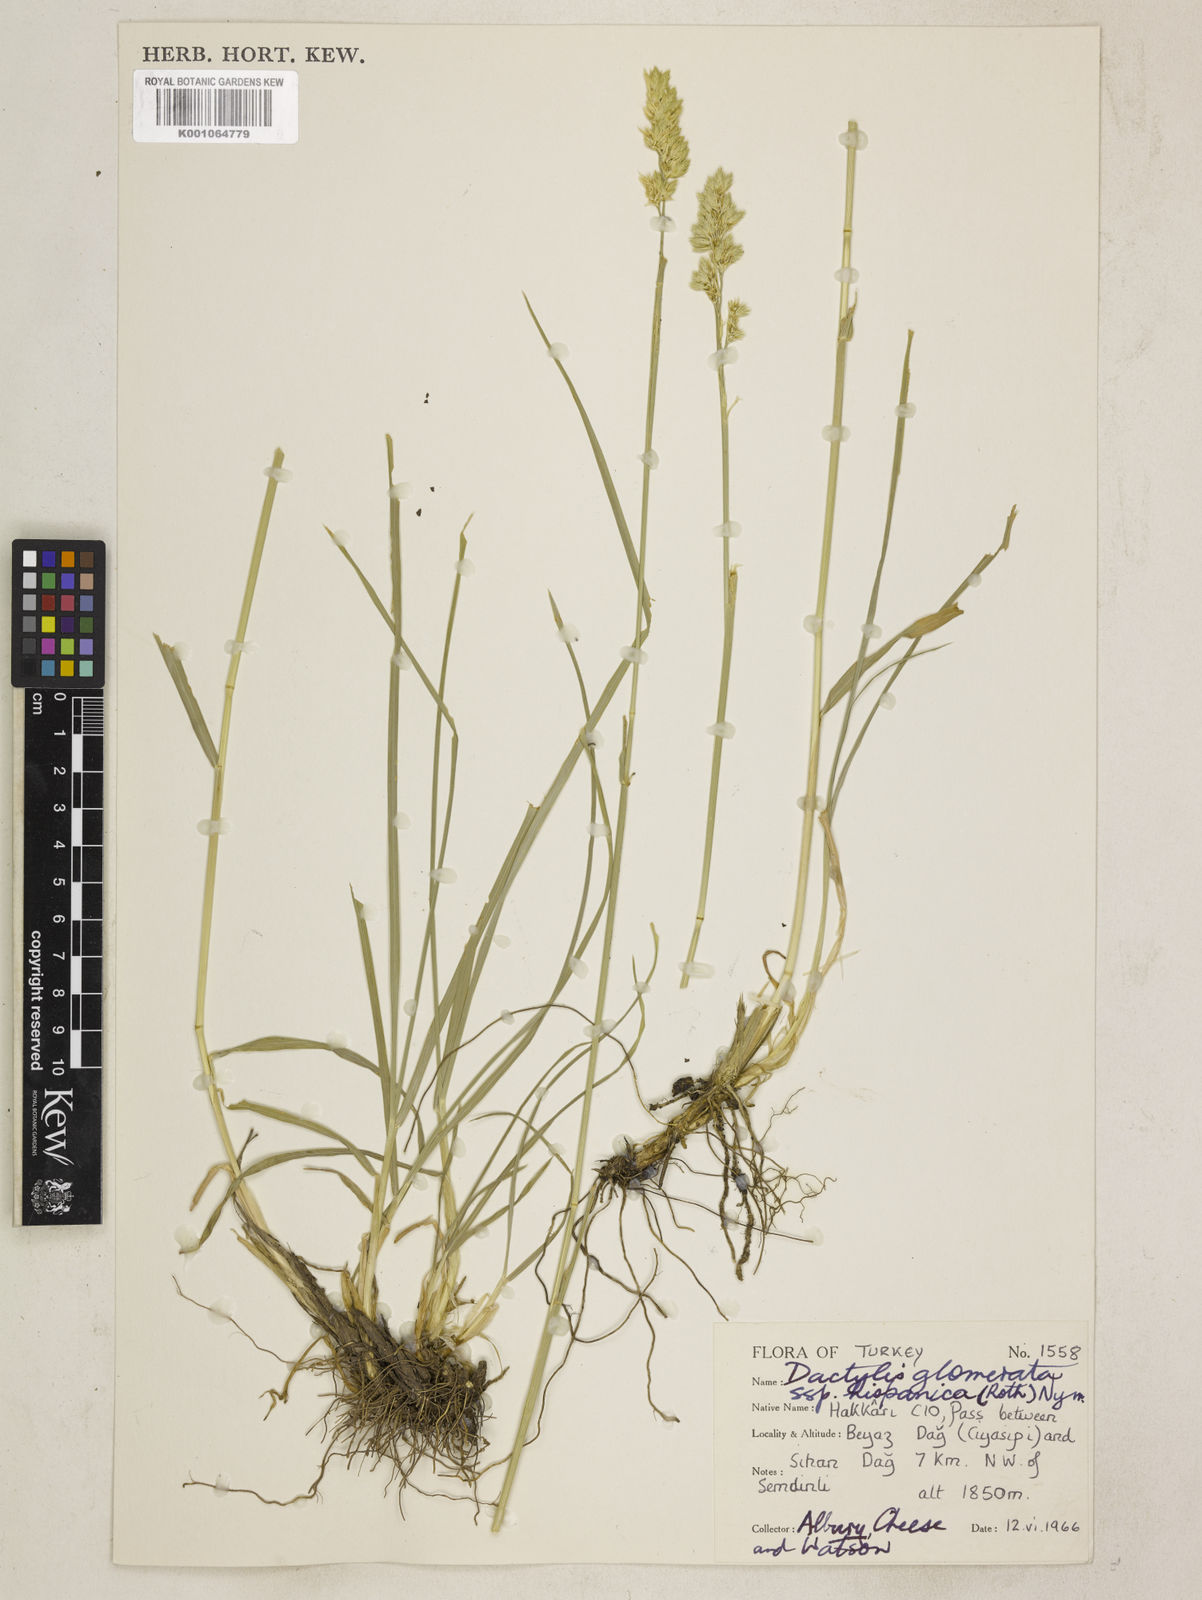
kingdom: Plantae
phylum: Tracheophyta
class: Liliopsida
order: Poales
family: Poaceae
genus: Dactylis
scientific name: Dactylis glomerata
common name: Orchardgrass
